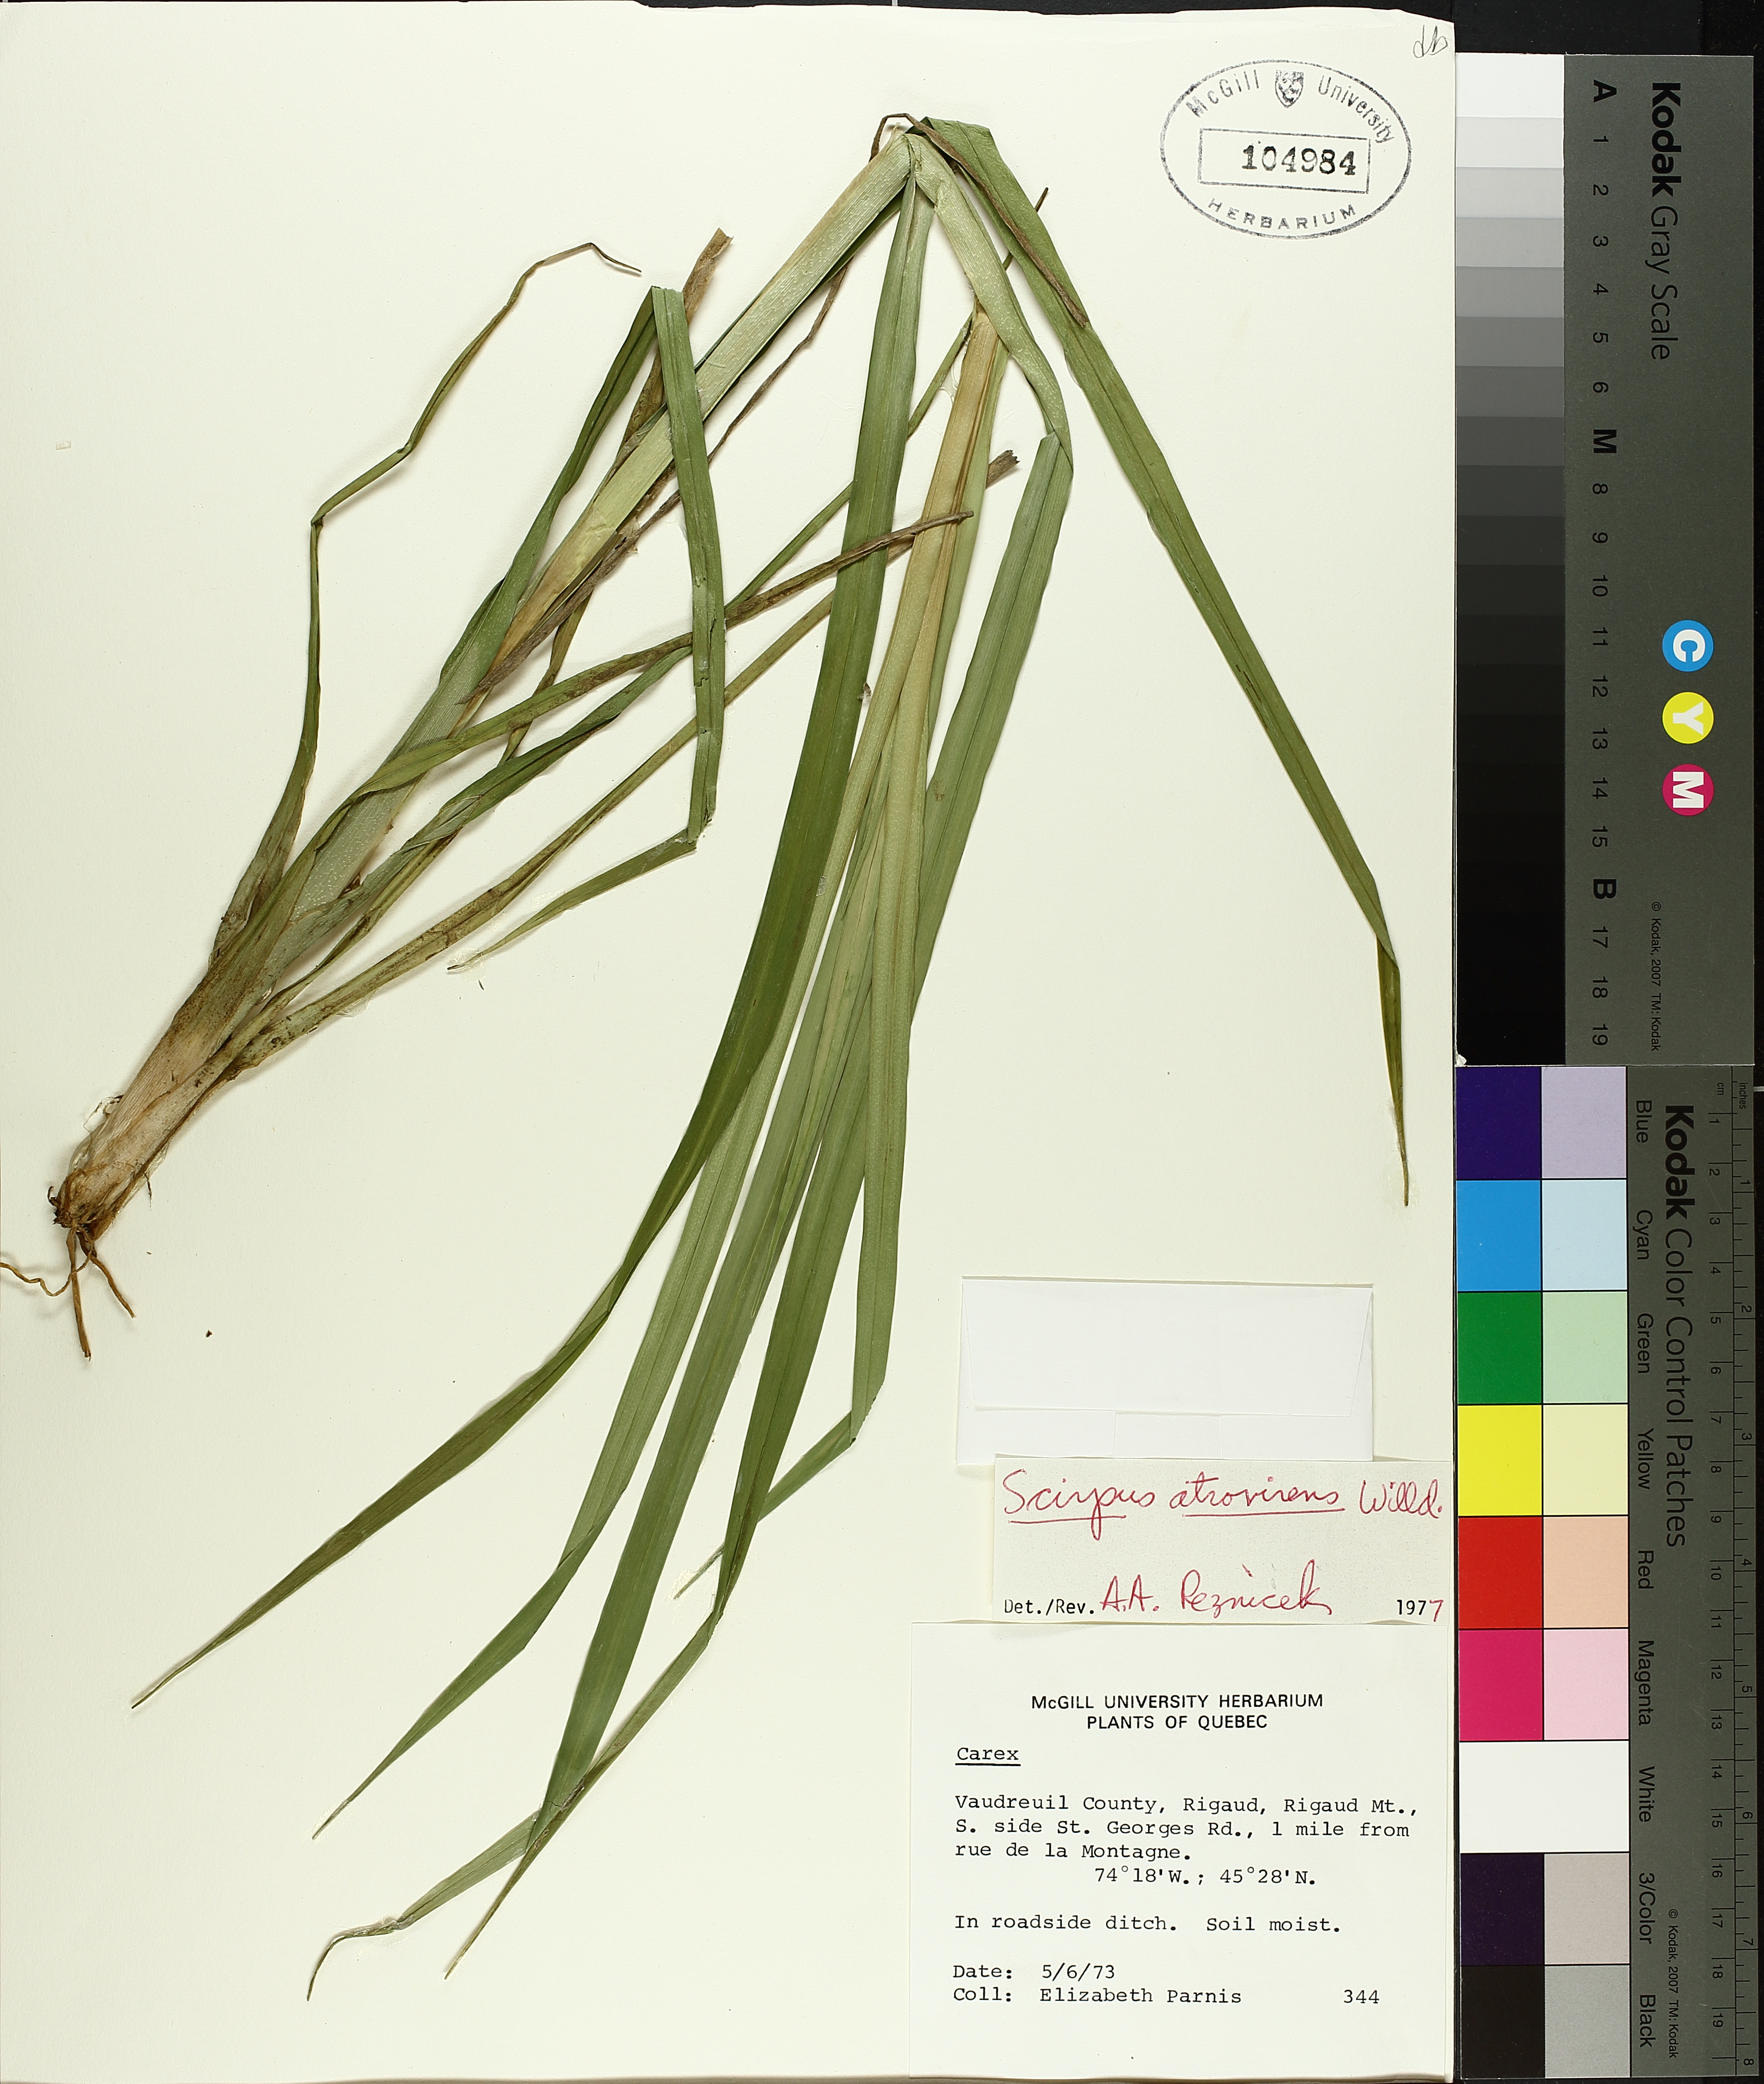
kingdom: Plantae
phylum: Tracheophyta
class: Liliopsida
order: Poales
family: Cyperaceae
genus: Scirpus
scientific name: Scirpus atrovirens
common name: Black bulrush
